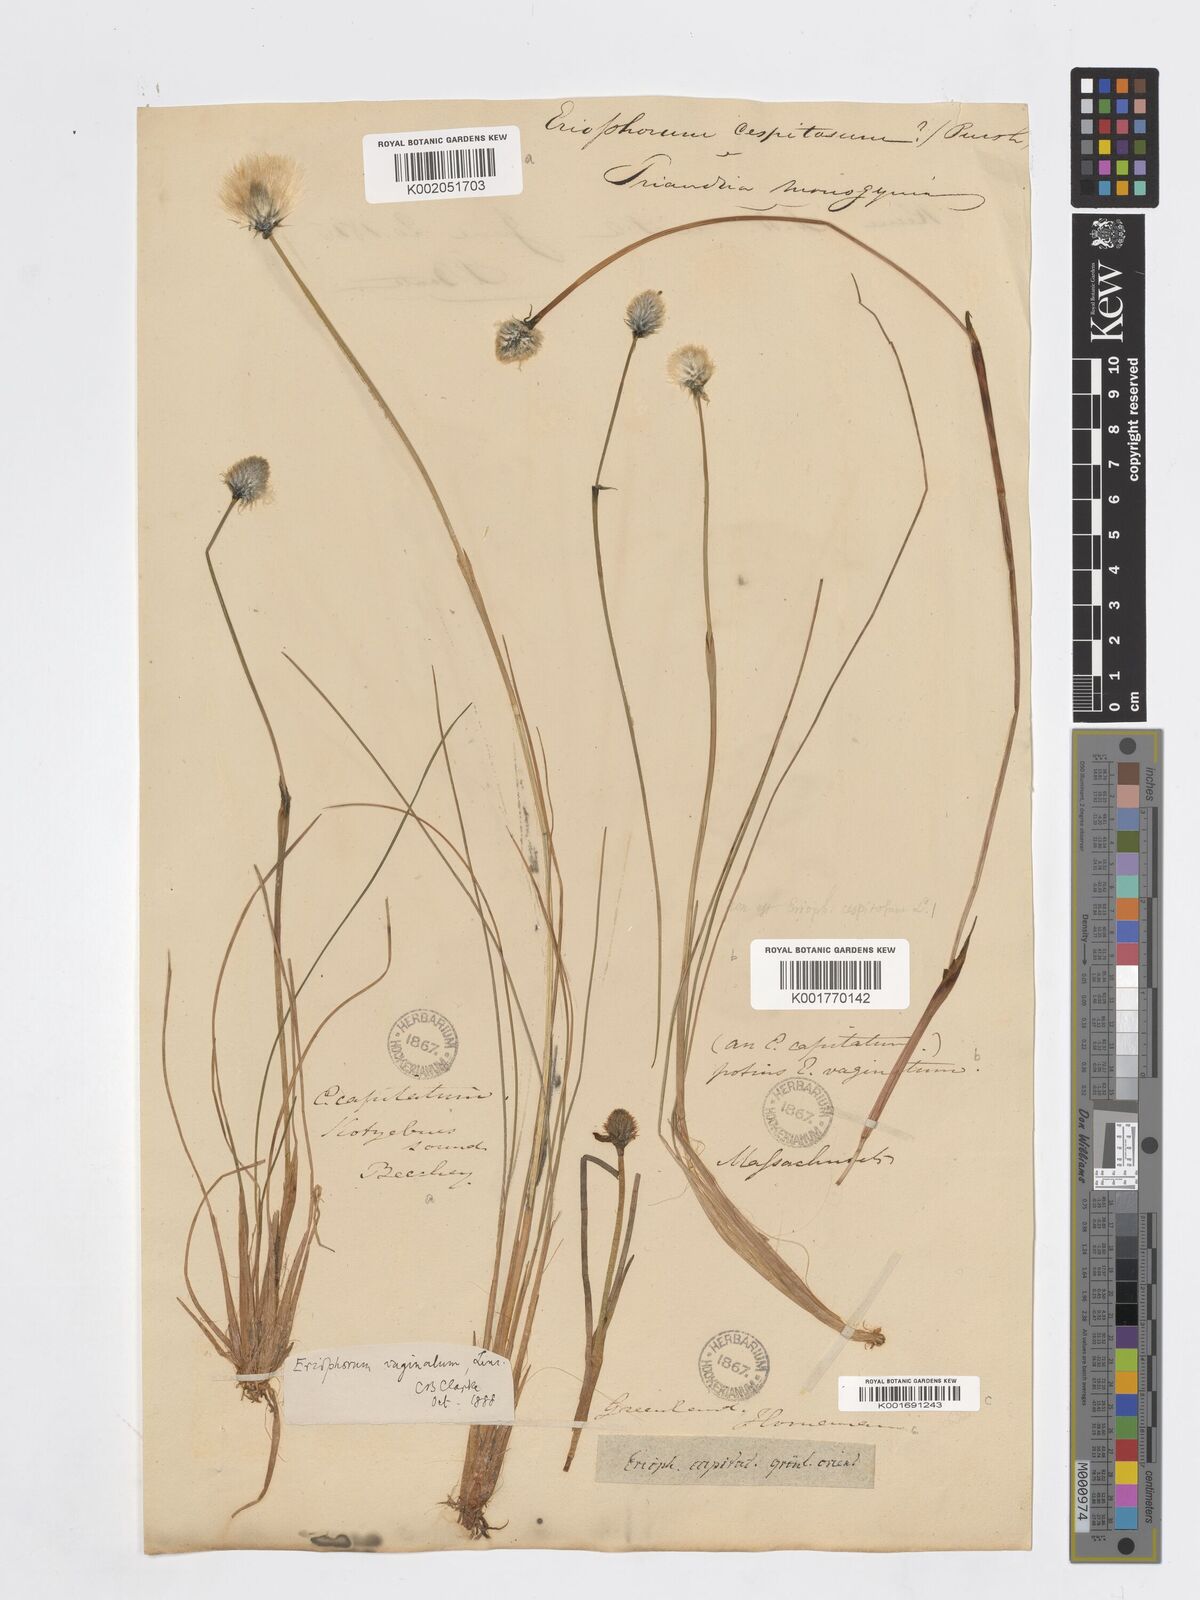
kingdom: Plantae
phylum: Tracheophyta
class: Liliopsida
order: Poales
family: Cyperaceae
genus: Eriophorum
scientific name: Eriophorum vaginatum
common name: Hare's-tail cottongrass
